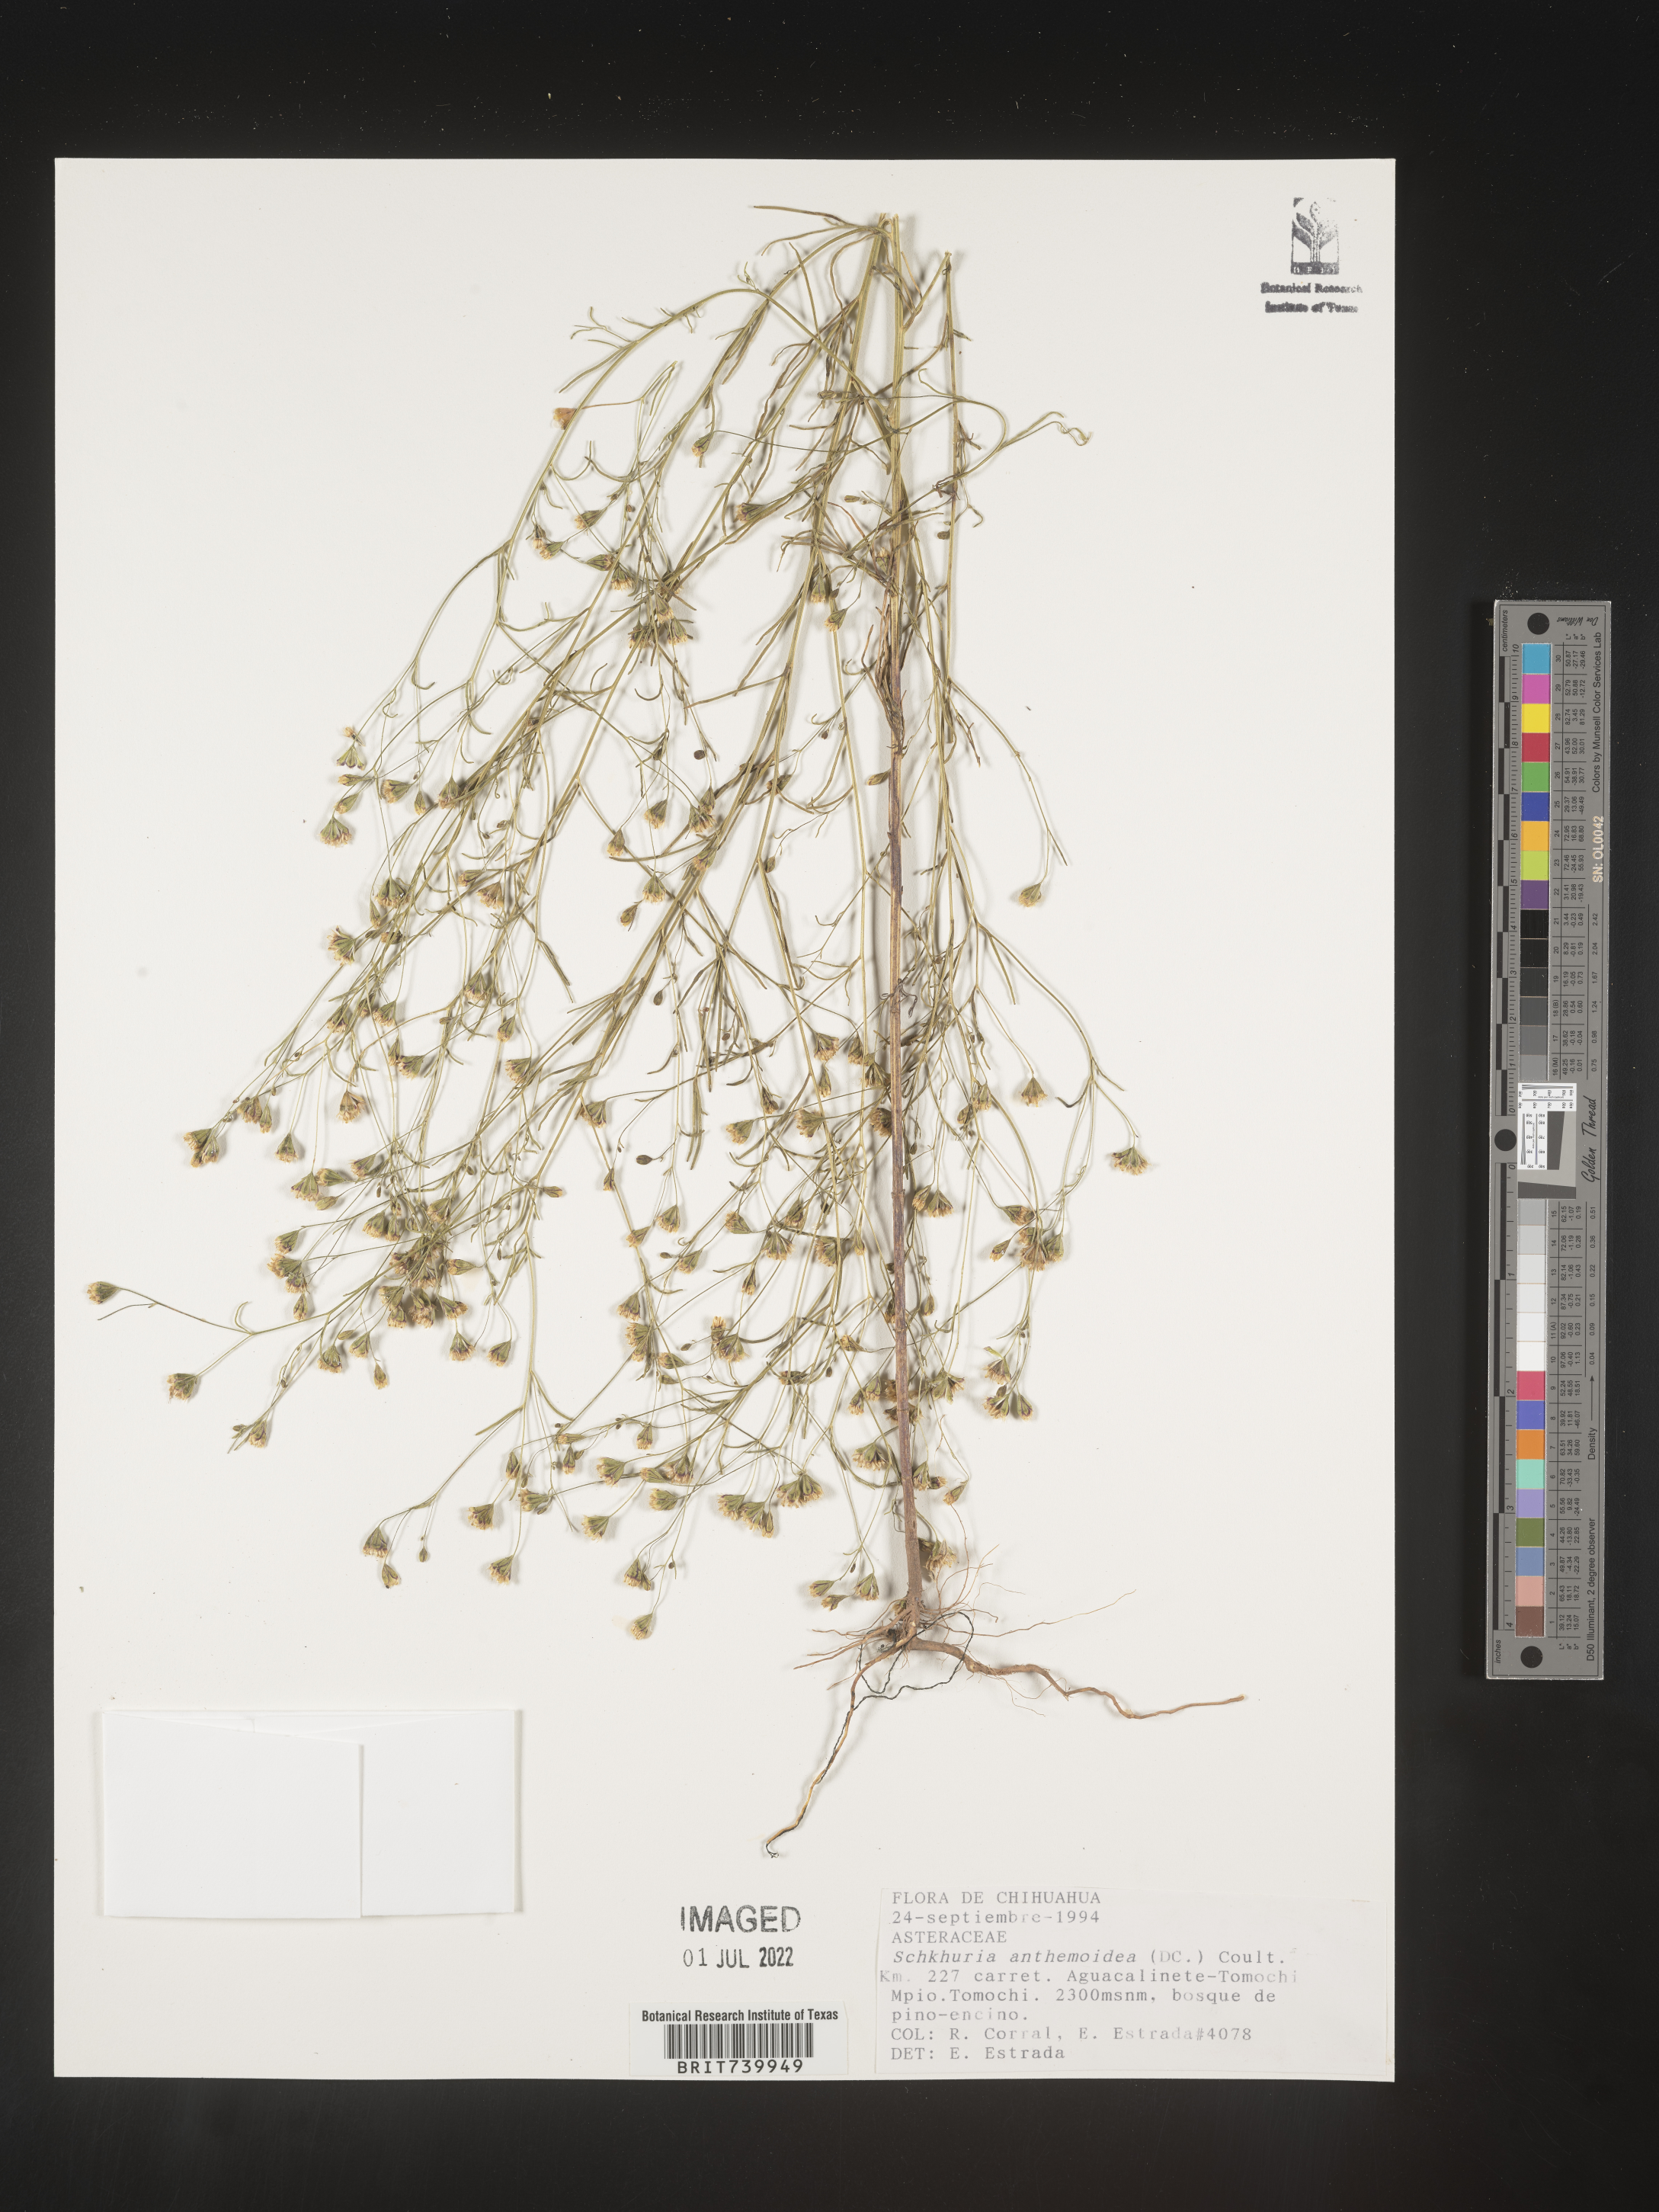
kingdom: Plantae
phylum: Tracheophyta
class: Magnoliopsida
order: Asterales
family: Asteraceae
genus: Schkuhria
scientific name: Schkuhria
